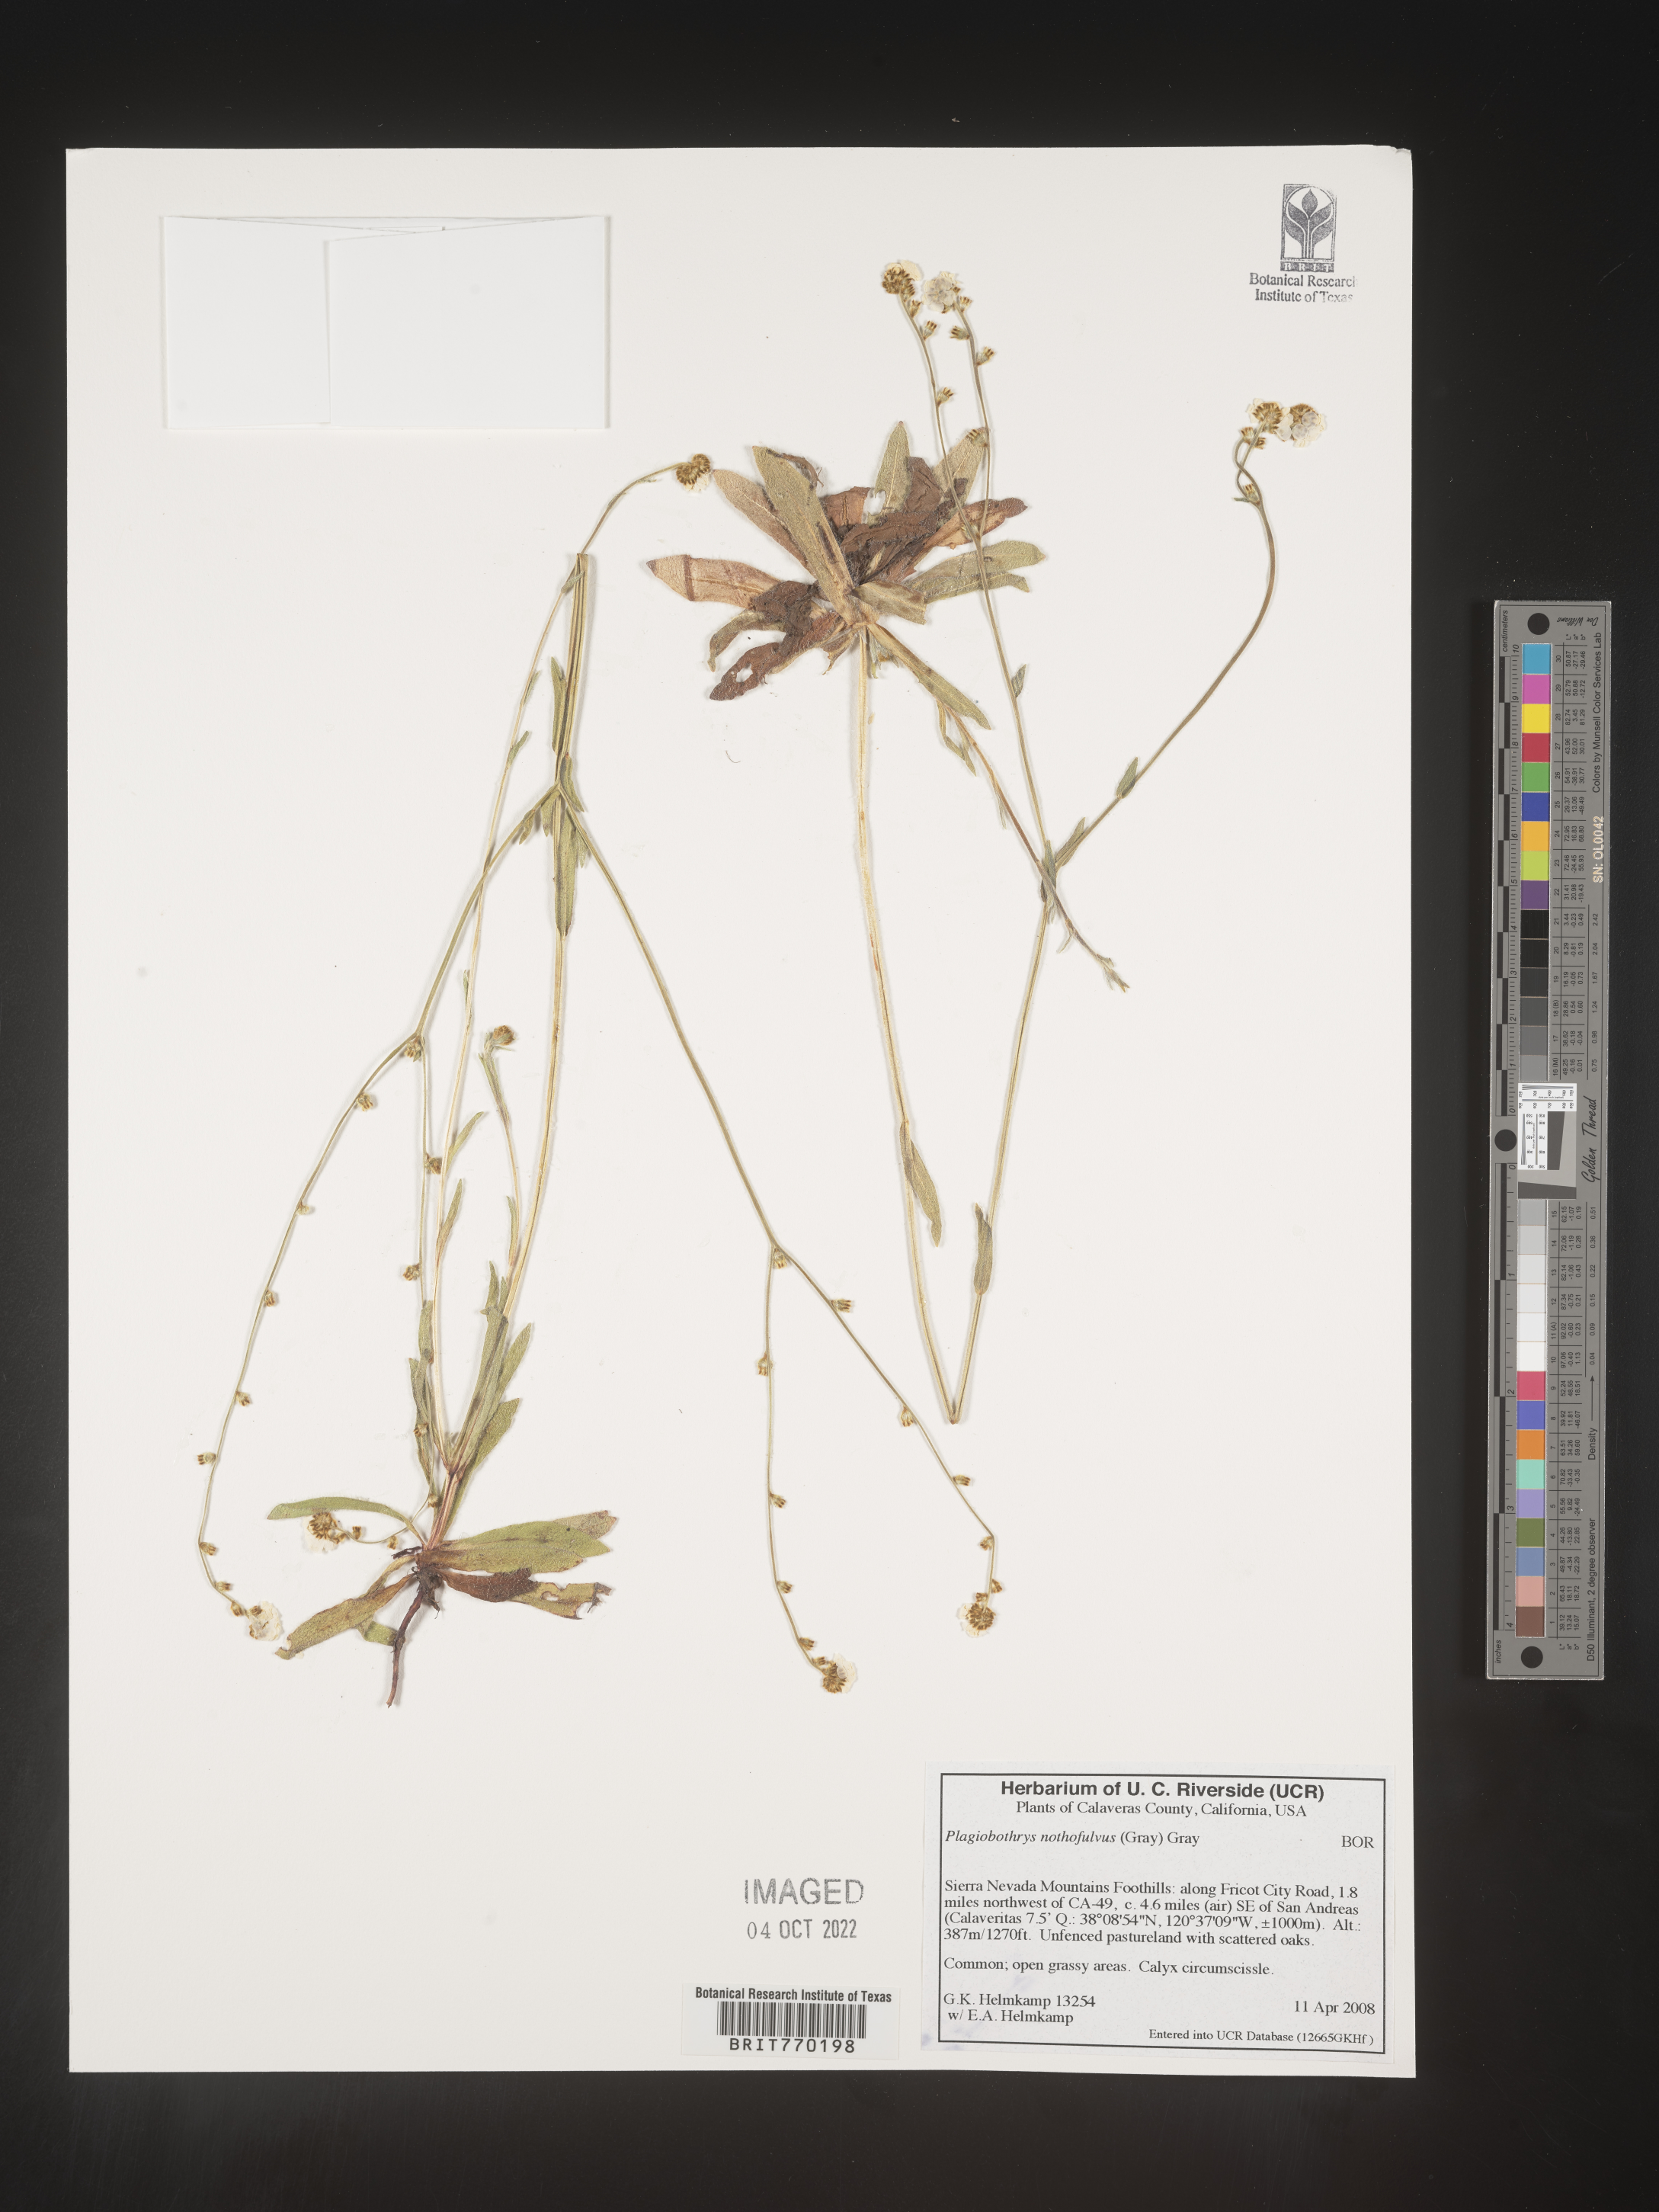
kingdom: Plantae
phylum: Tracheophyta
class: Magnoliopsida
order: Boraginales
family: Boraginaceae
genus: Plagiobothrys
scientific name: Plagiobothrys
